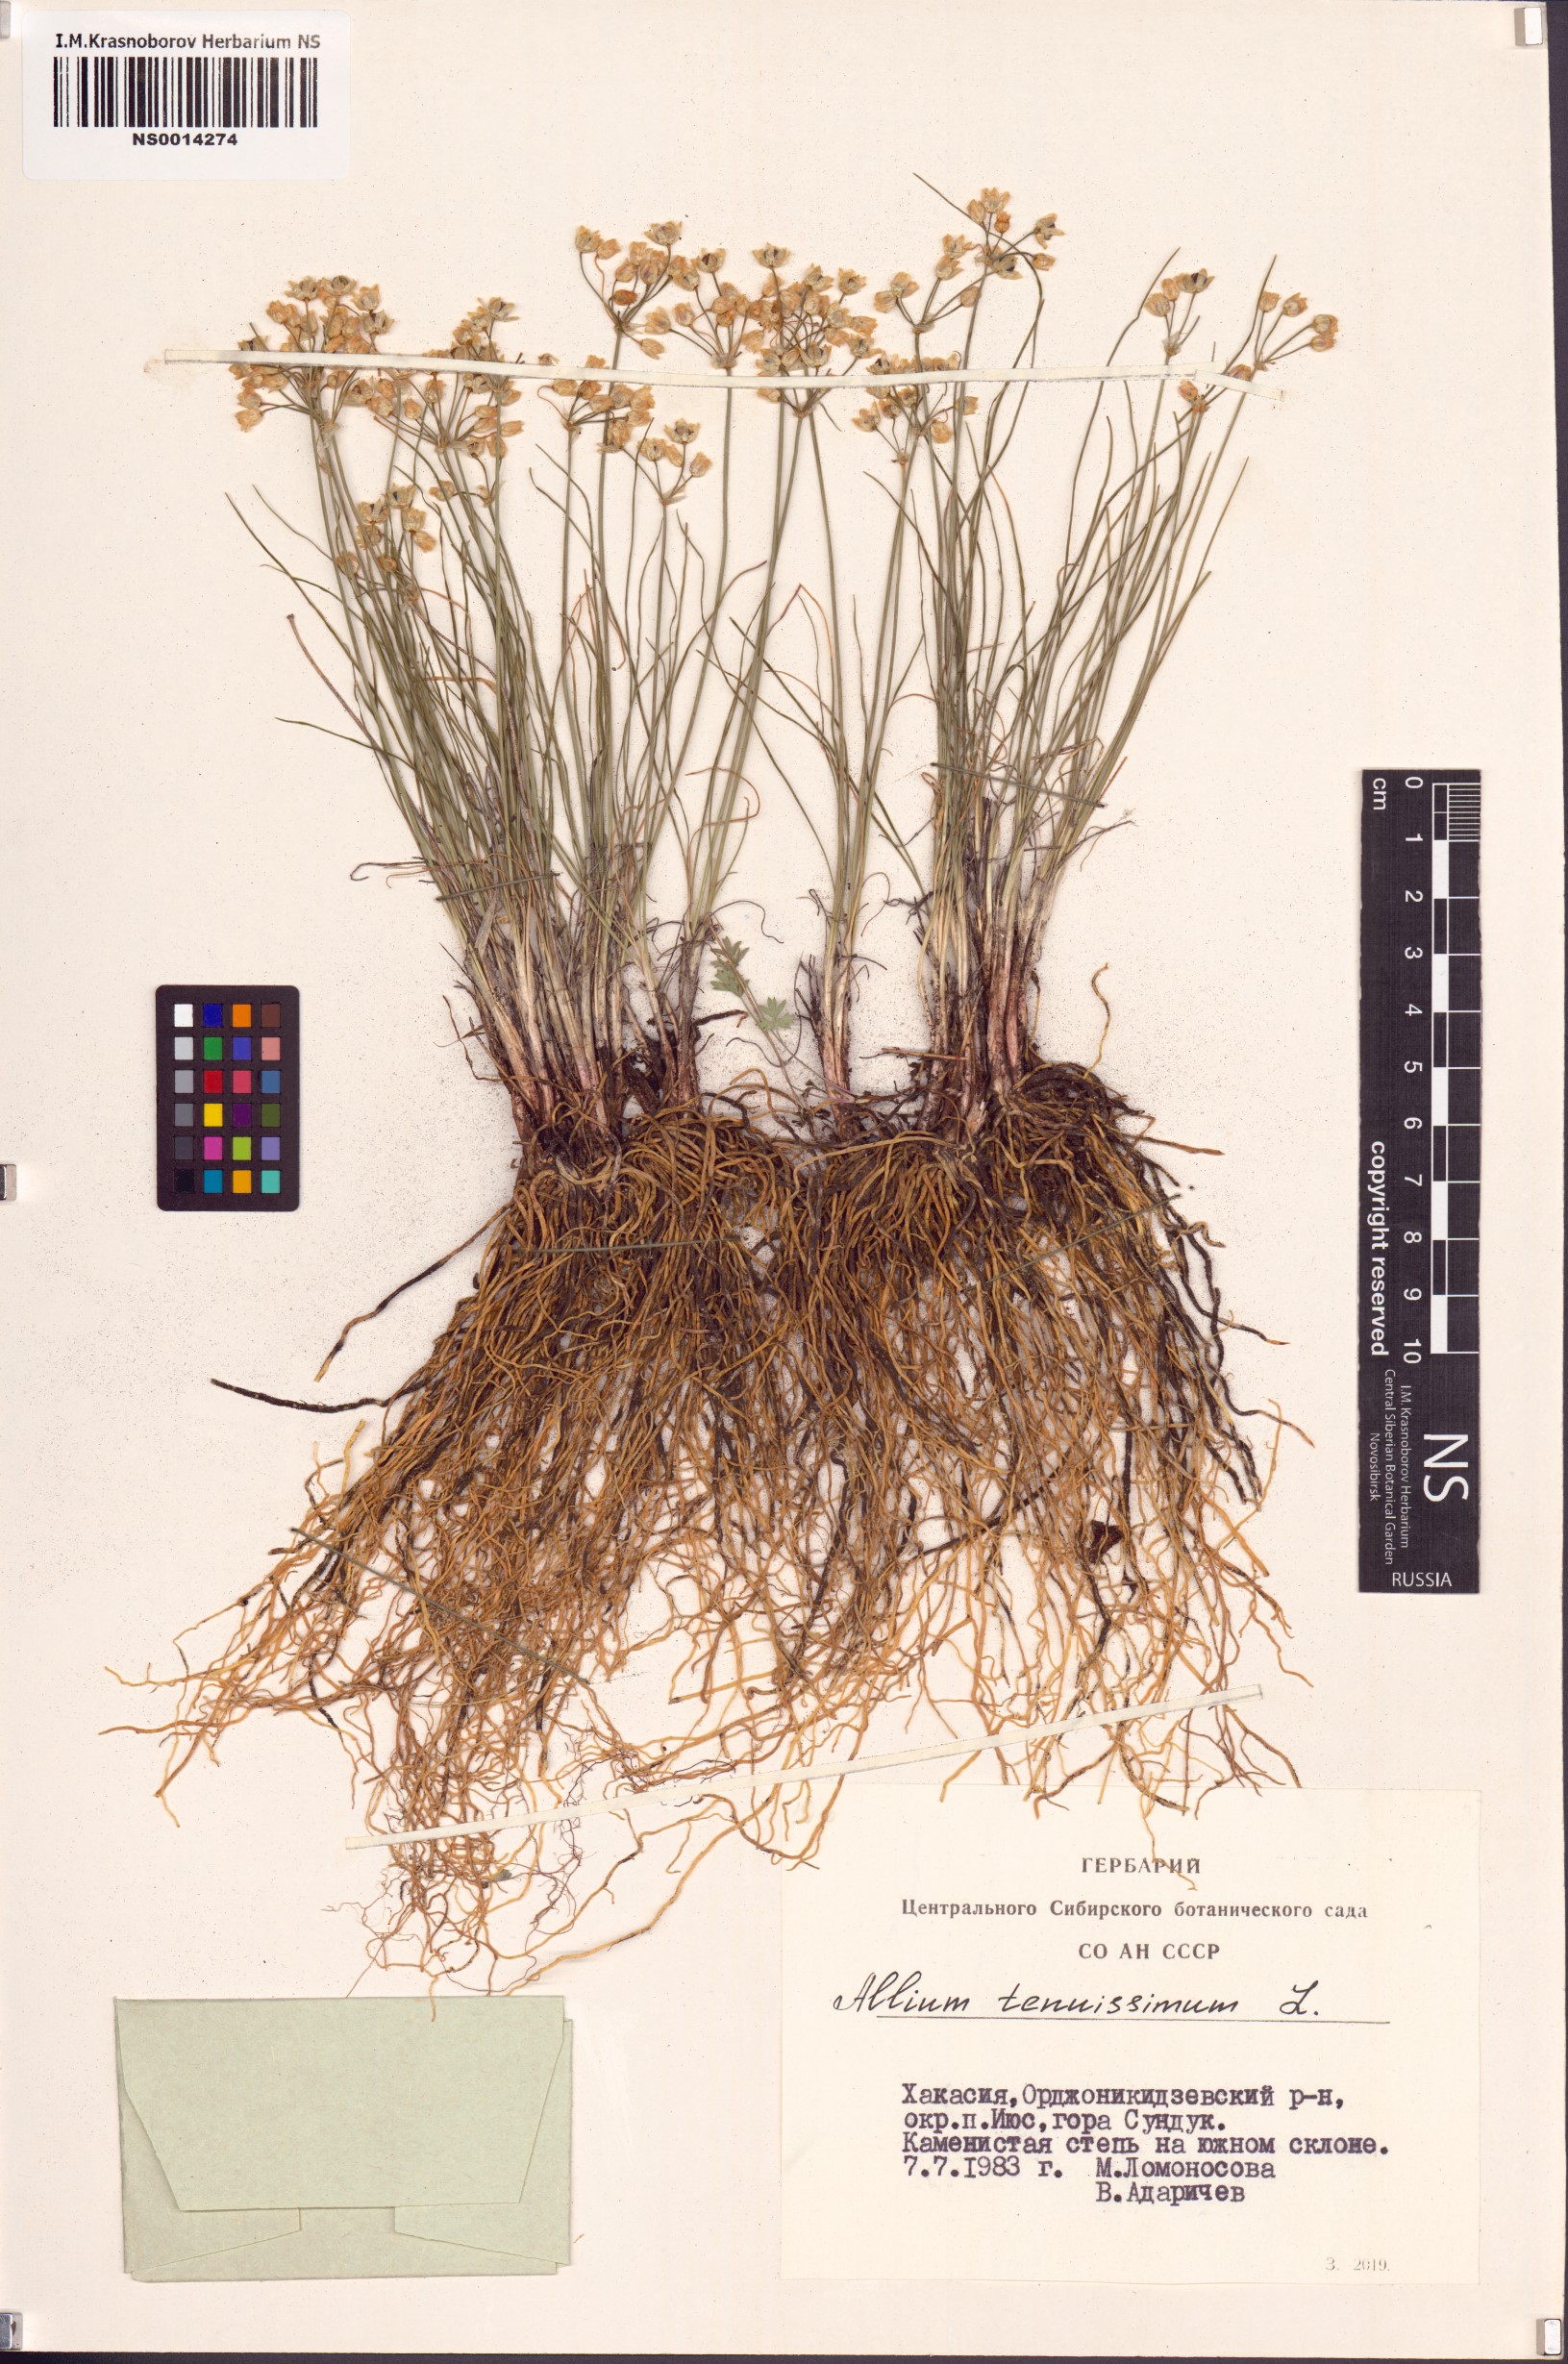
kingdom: Plantae
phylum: Tracheophyta
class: Liliopsida
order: Asparagales
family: Amaryllidaceae
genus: Allium
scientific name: Allium tenuissimum
